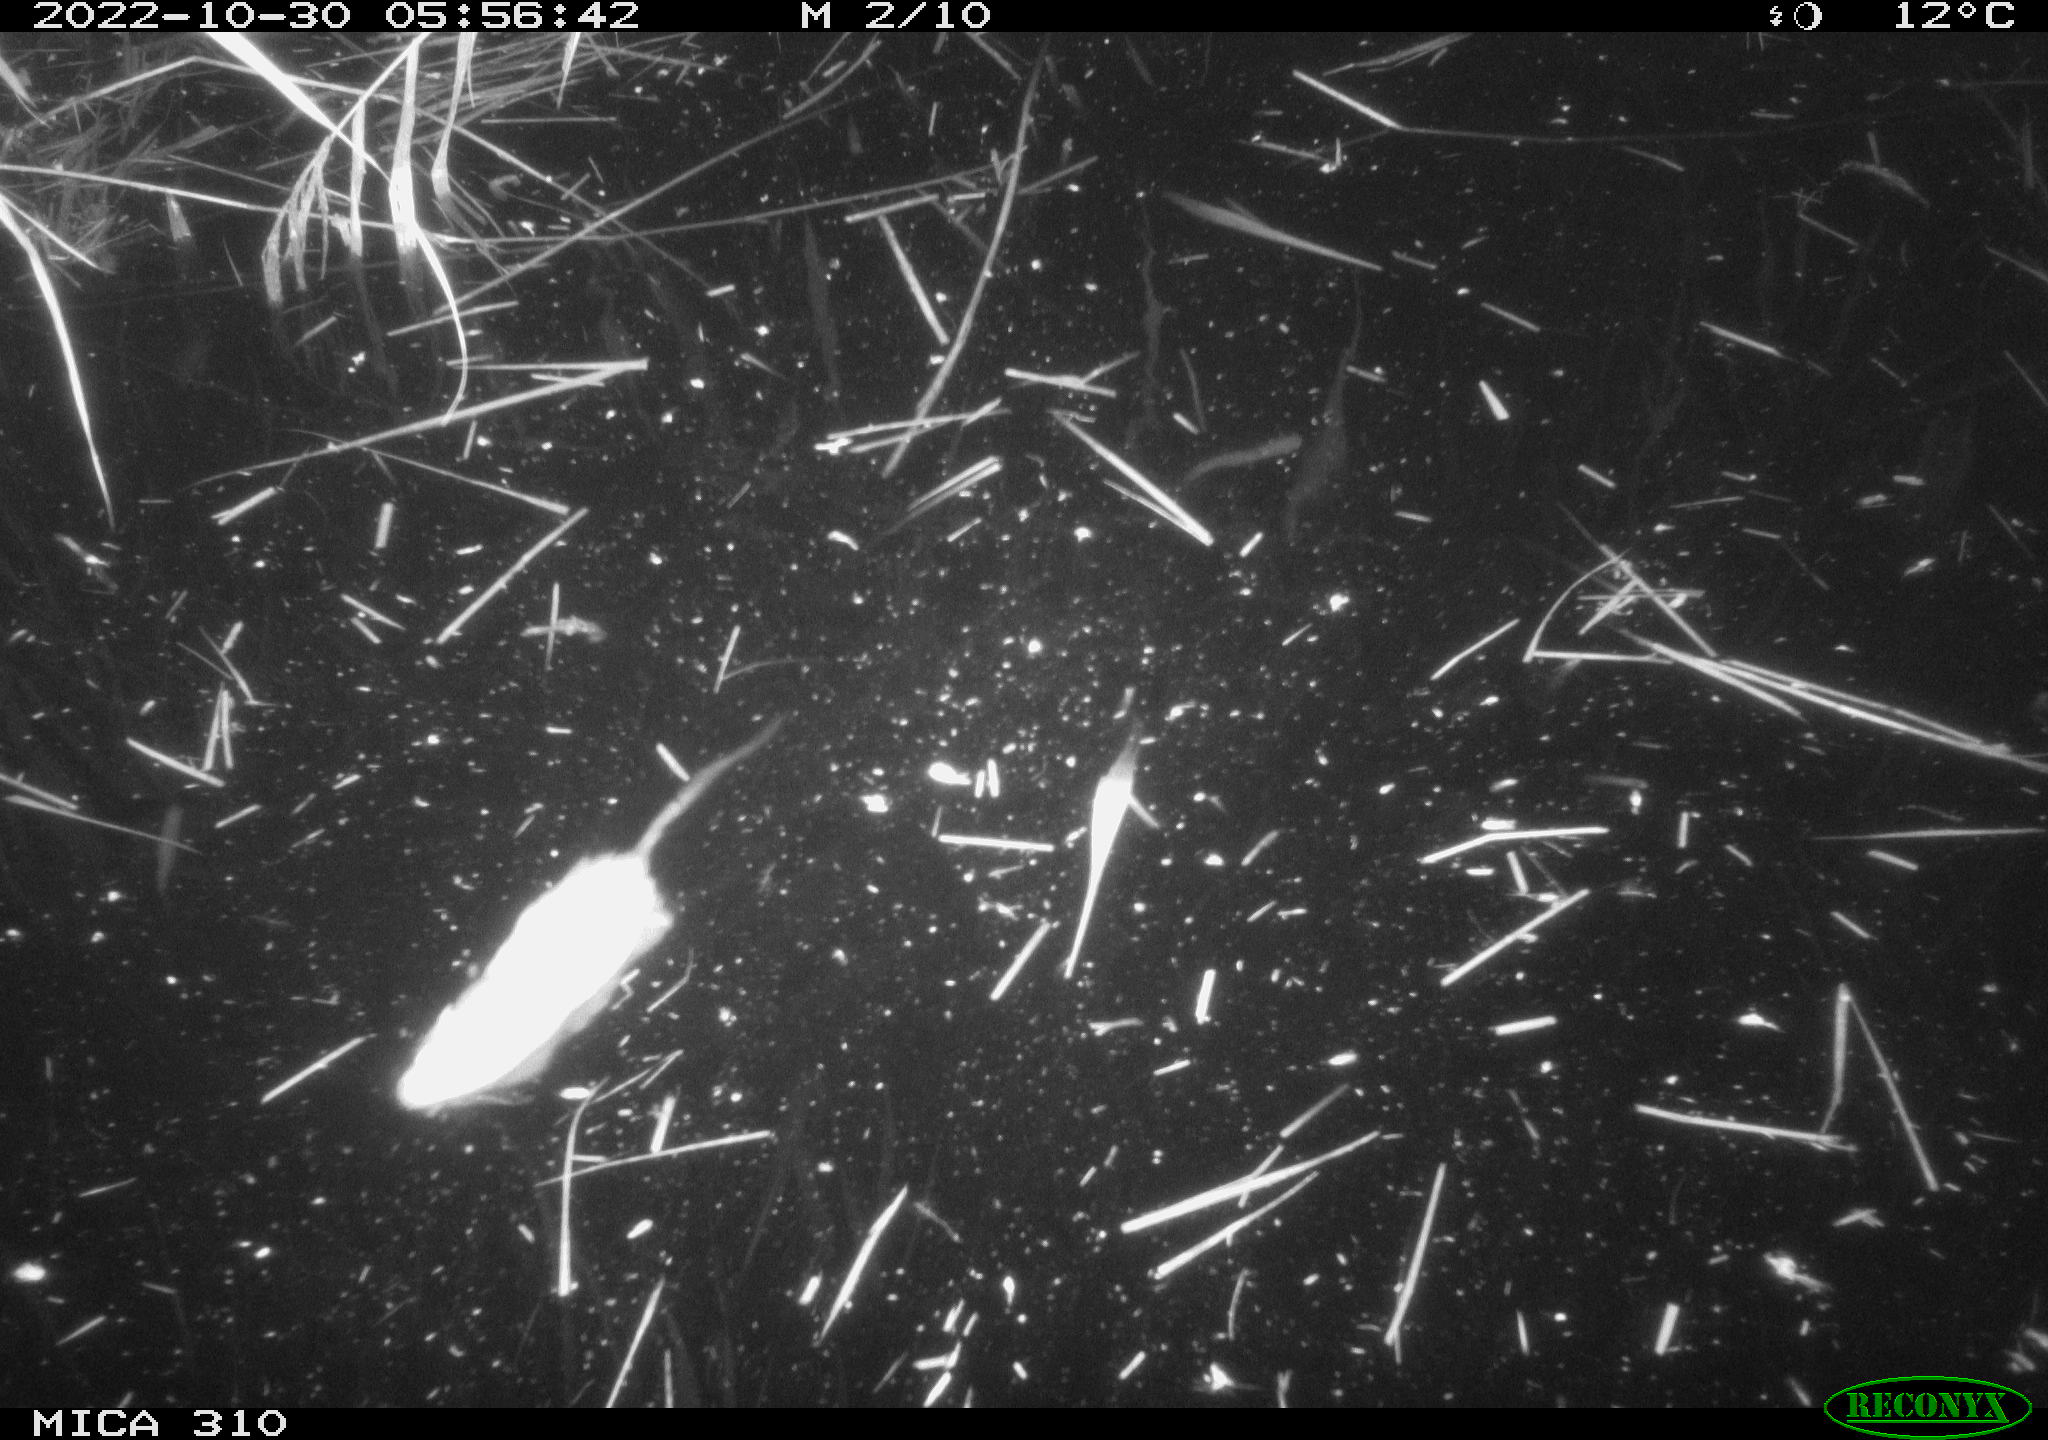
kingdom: Animalia
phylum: Chordata
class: Mammalia
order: Rodentia
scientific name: Rodentia
